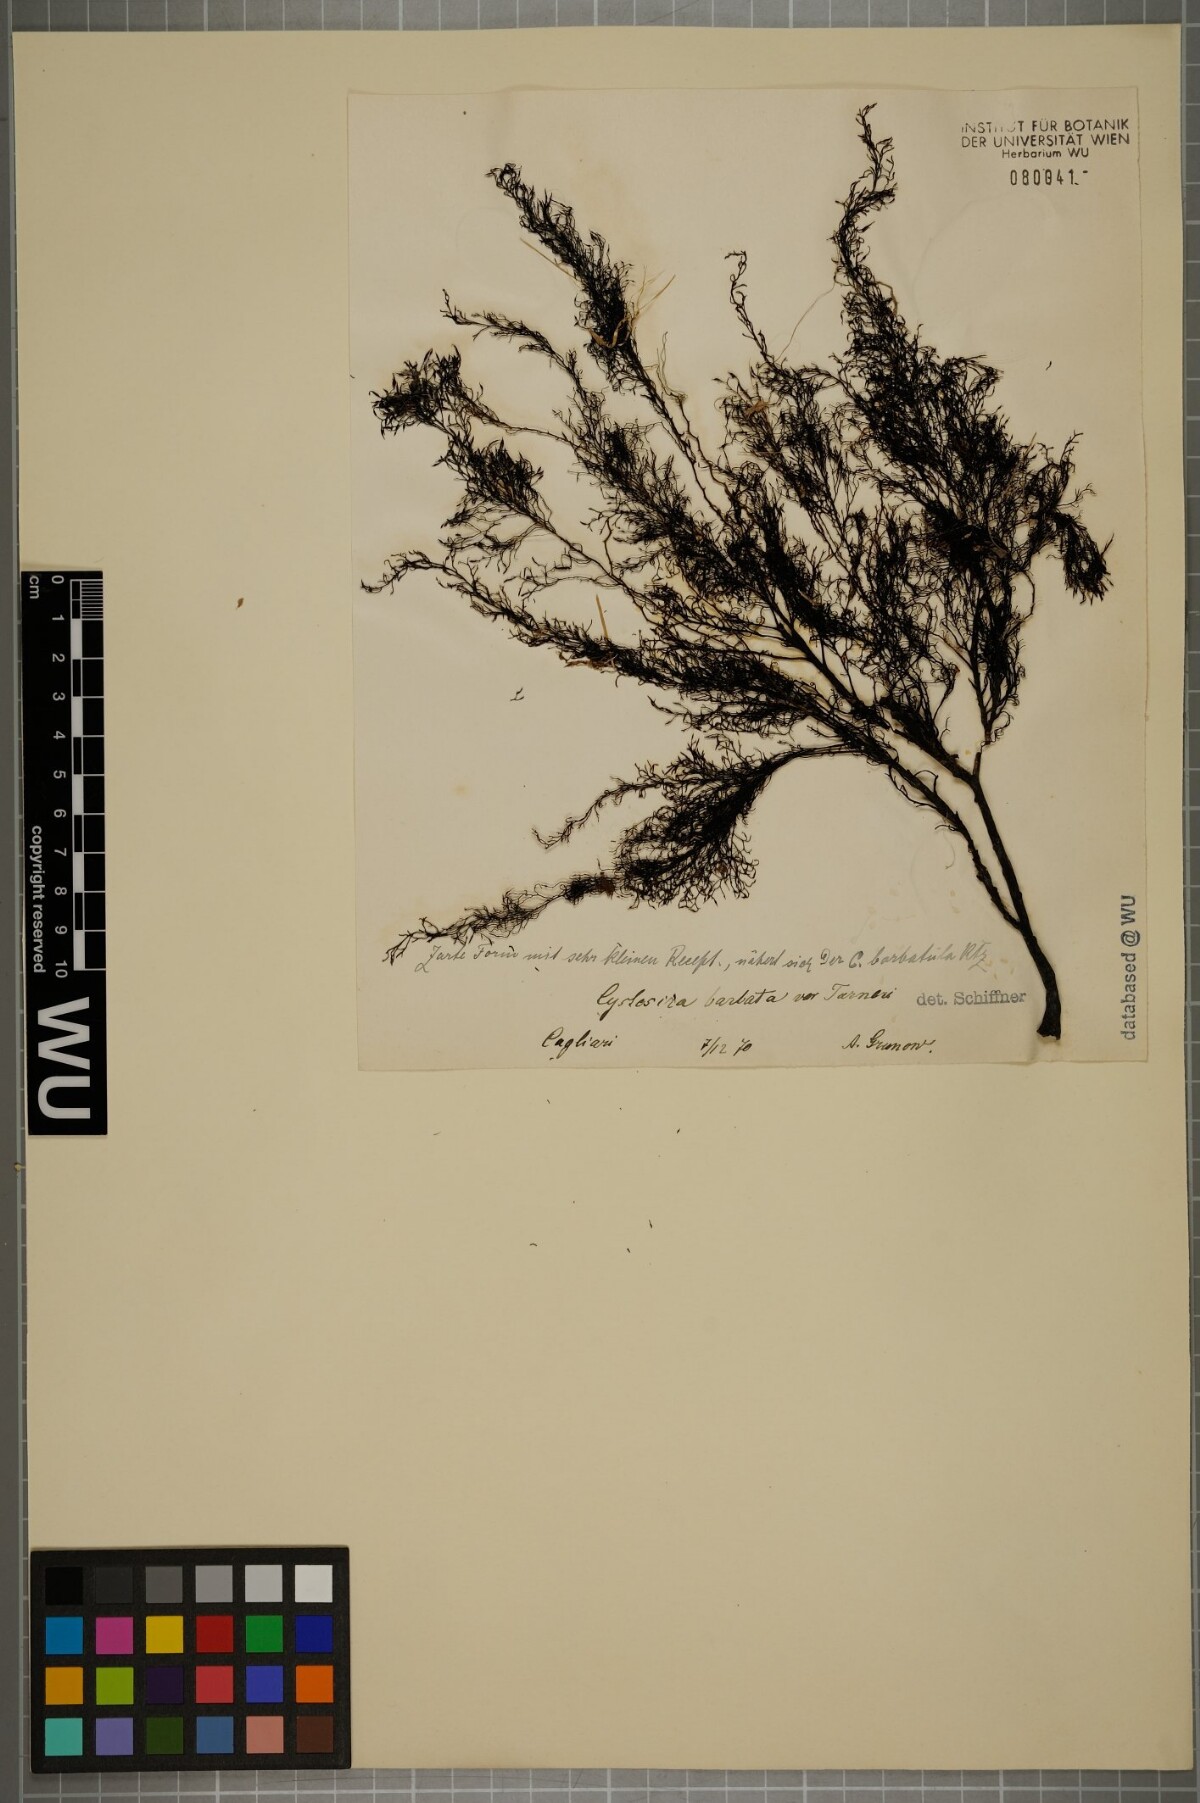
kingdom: Chromista
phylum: Ochrophyta
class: Phaeophyceae
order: Fucales
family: Sargassaceae
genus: Cystoseira
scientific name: Cystoseira Gongolaria barbata
